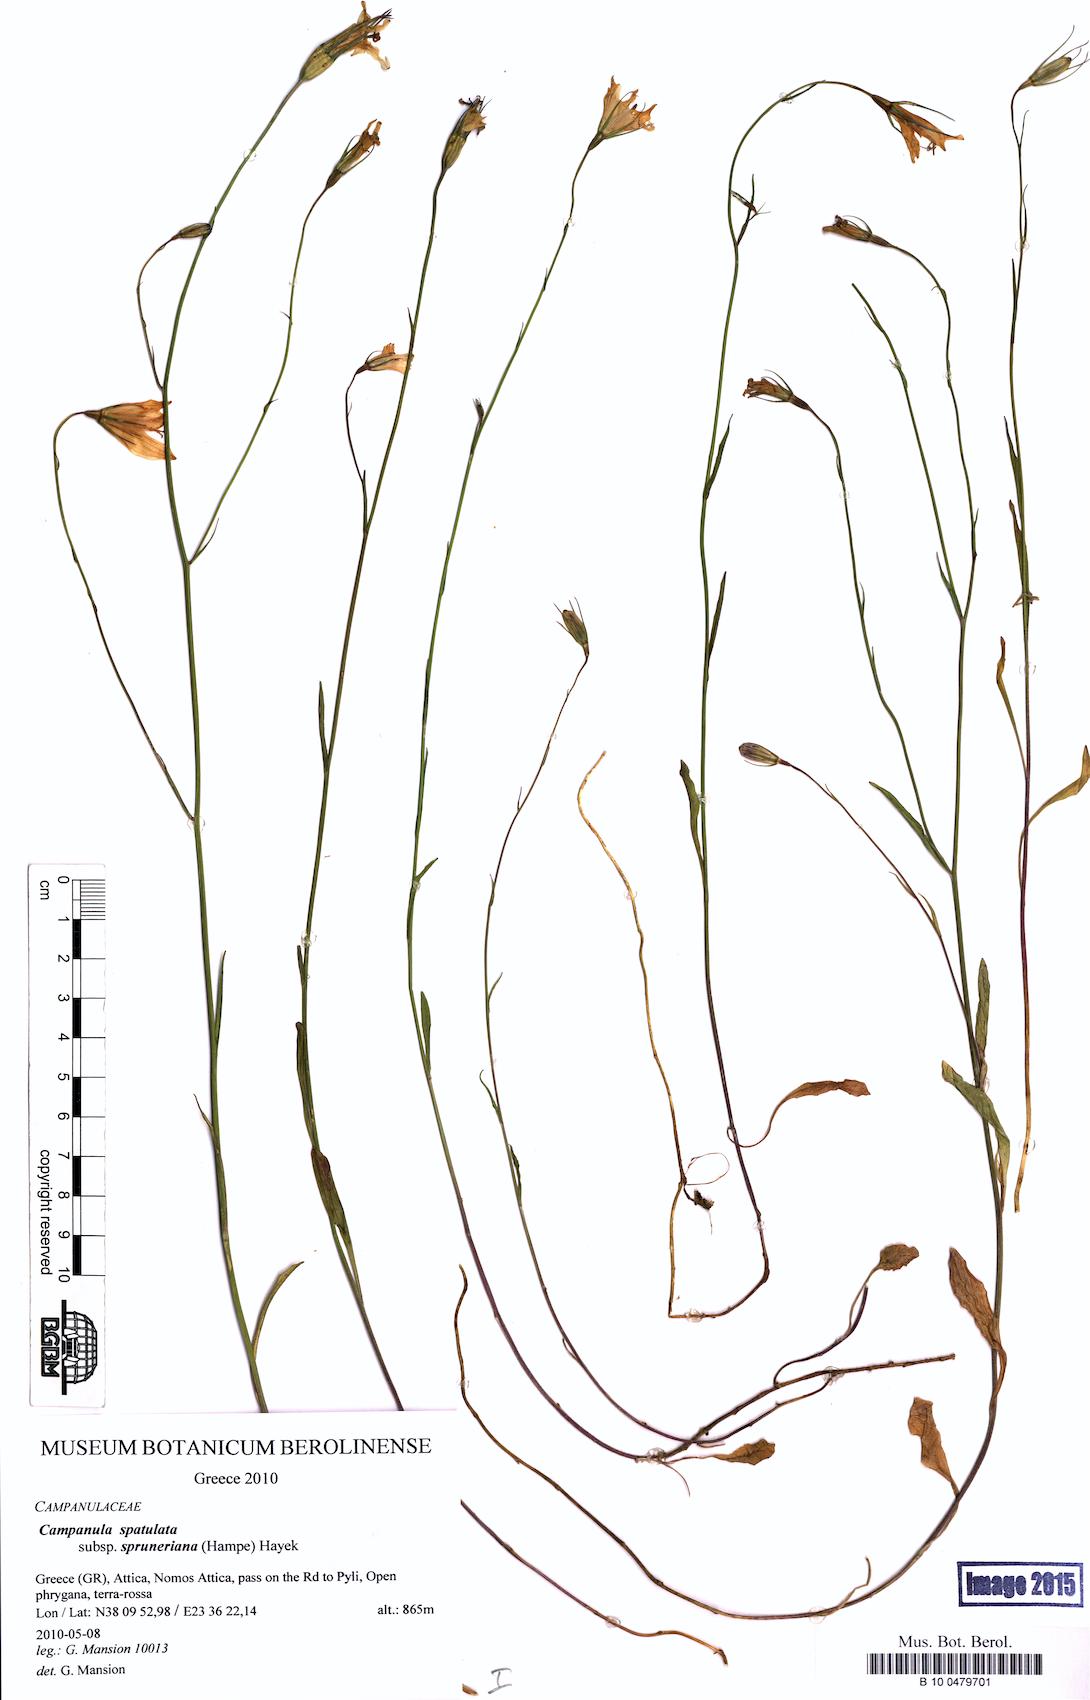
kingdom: Plantae
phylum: Tracheophyta
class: Magnoliopsida
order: Asterales
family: Campanulaceae
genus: Campanula
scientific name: Campanula spatulata
